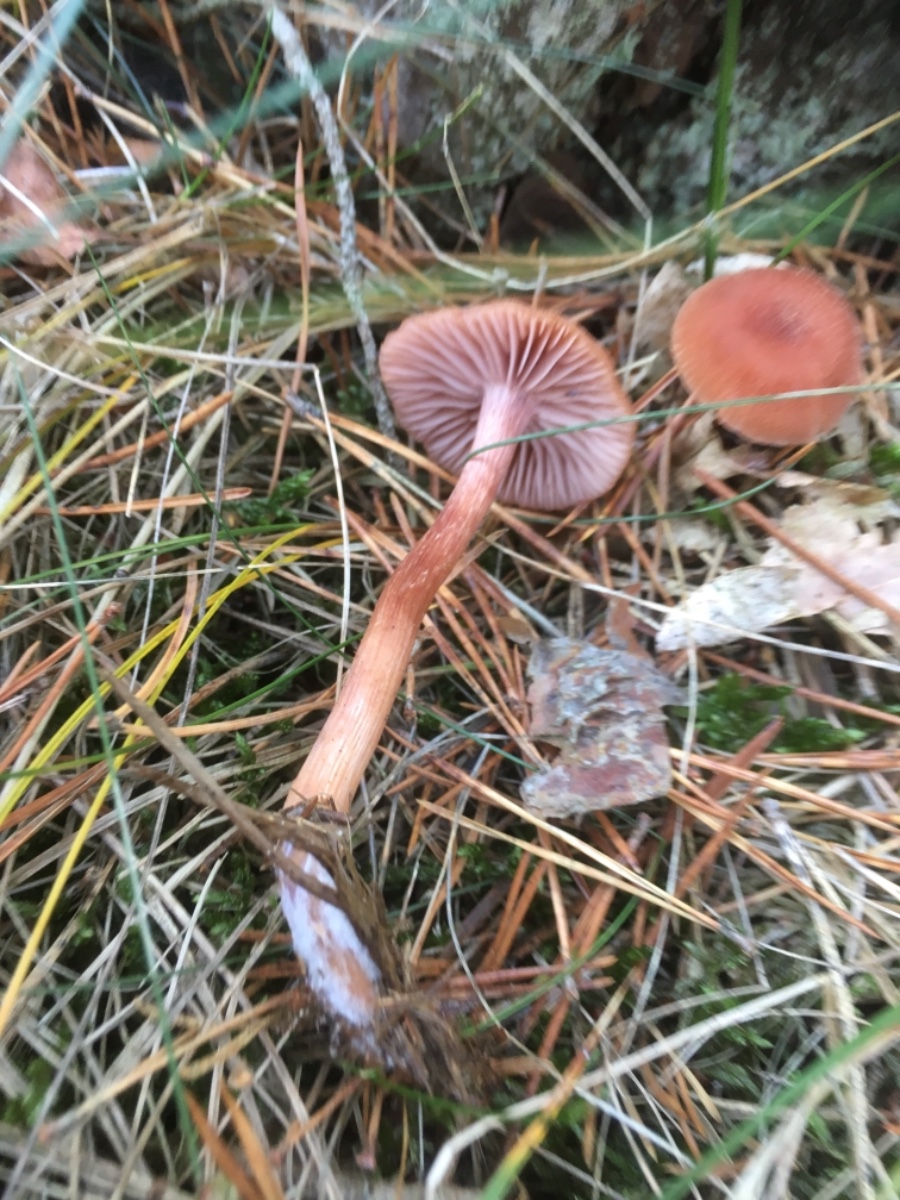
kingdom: Fungi
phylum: Basidiomycota
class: Agaricomycetes
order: Agaricales
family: Hydnangiaceae
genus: Laccaria
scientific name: Laccaria bicolor
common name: tvefarvet ametysthat
